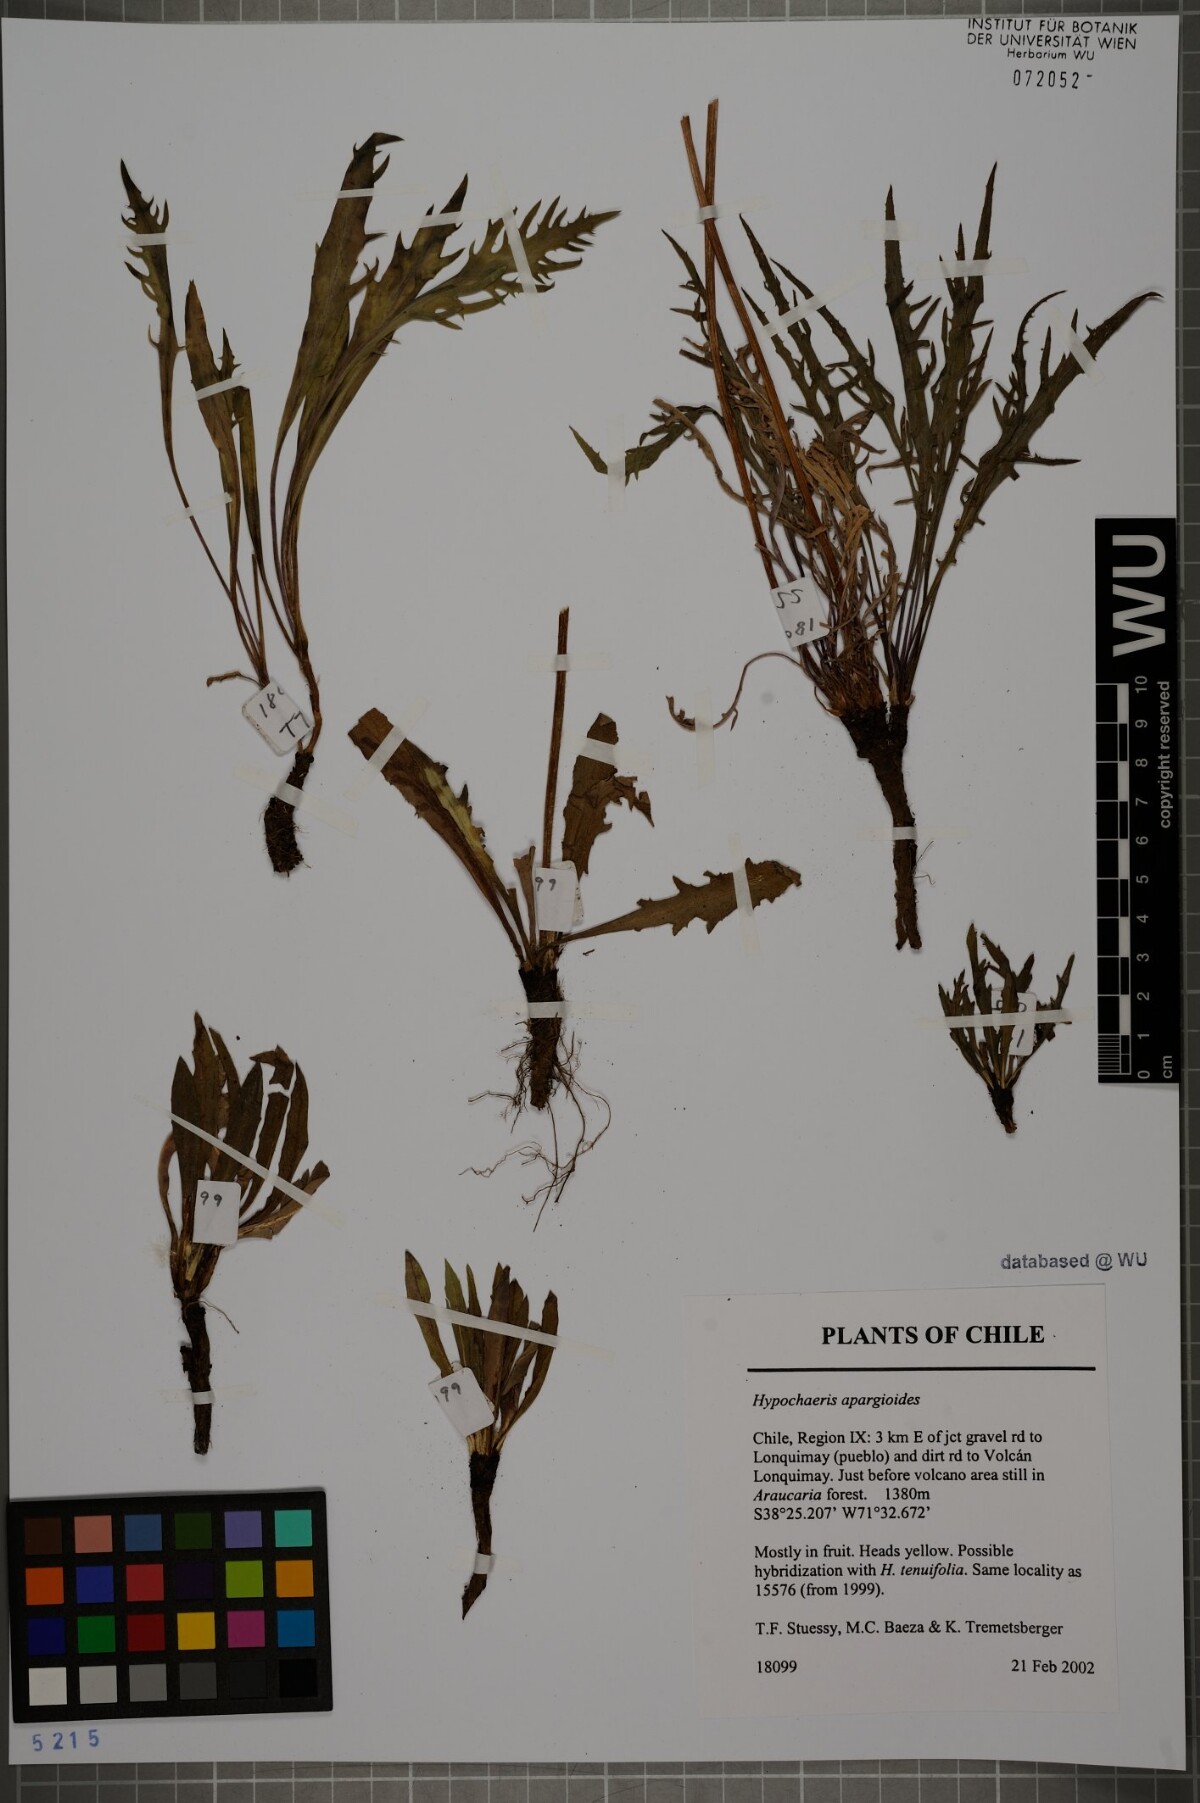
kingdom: Plantae
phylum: Tracheophyta
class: Magnoliopsida
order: Asterales
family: Asteraceae
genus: Hypochaeris
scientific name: Hypochaeris apargioides
